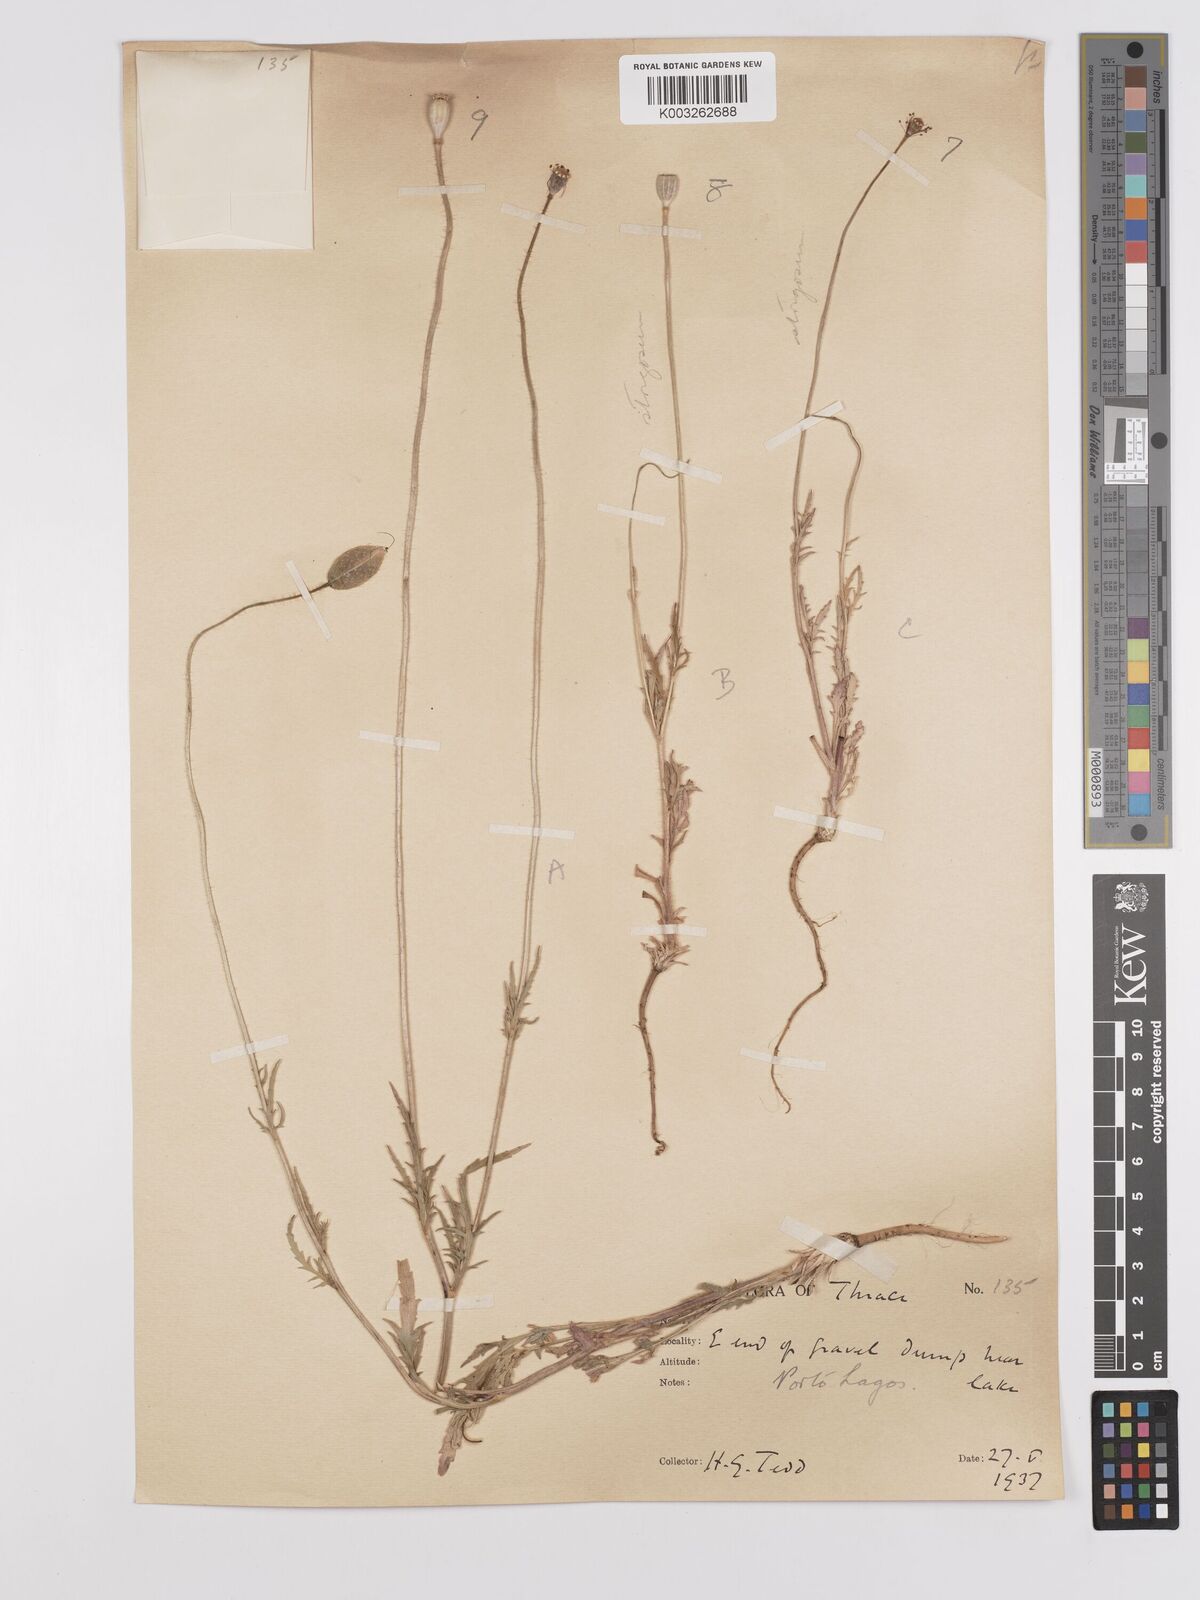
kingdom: Plantae
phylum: Tracheophyta
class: Magnoliopsida
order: Ranunculales
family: Papaveraceae
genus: Papaver
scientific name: Papaver
